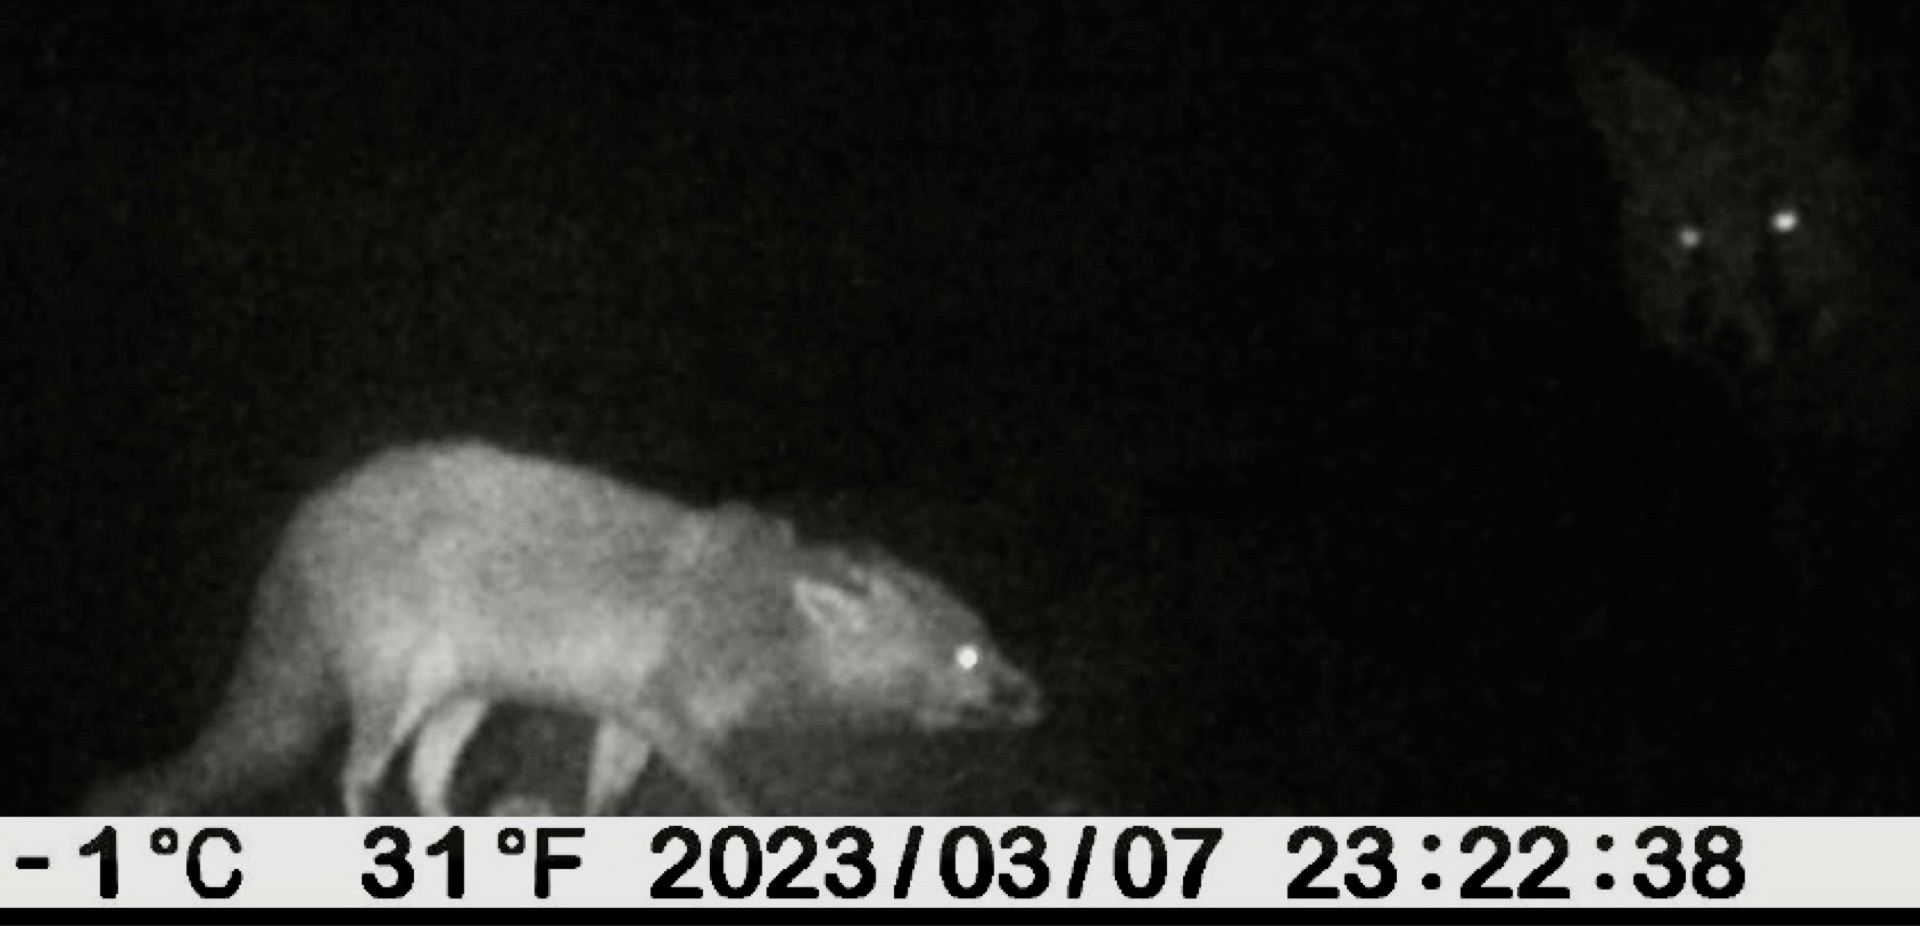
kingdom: Animalia
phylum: Chordata
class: Mammalia
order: Carnivora
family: Canidae
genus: Vulpes
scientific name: Vulpes vulpes
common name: Ræv
